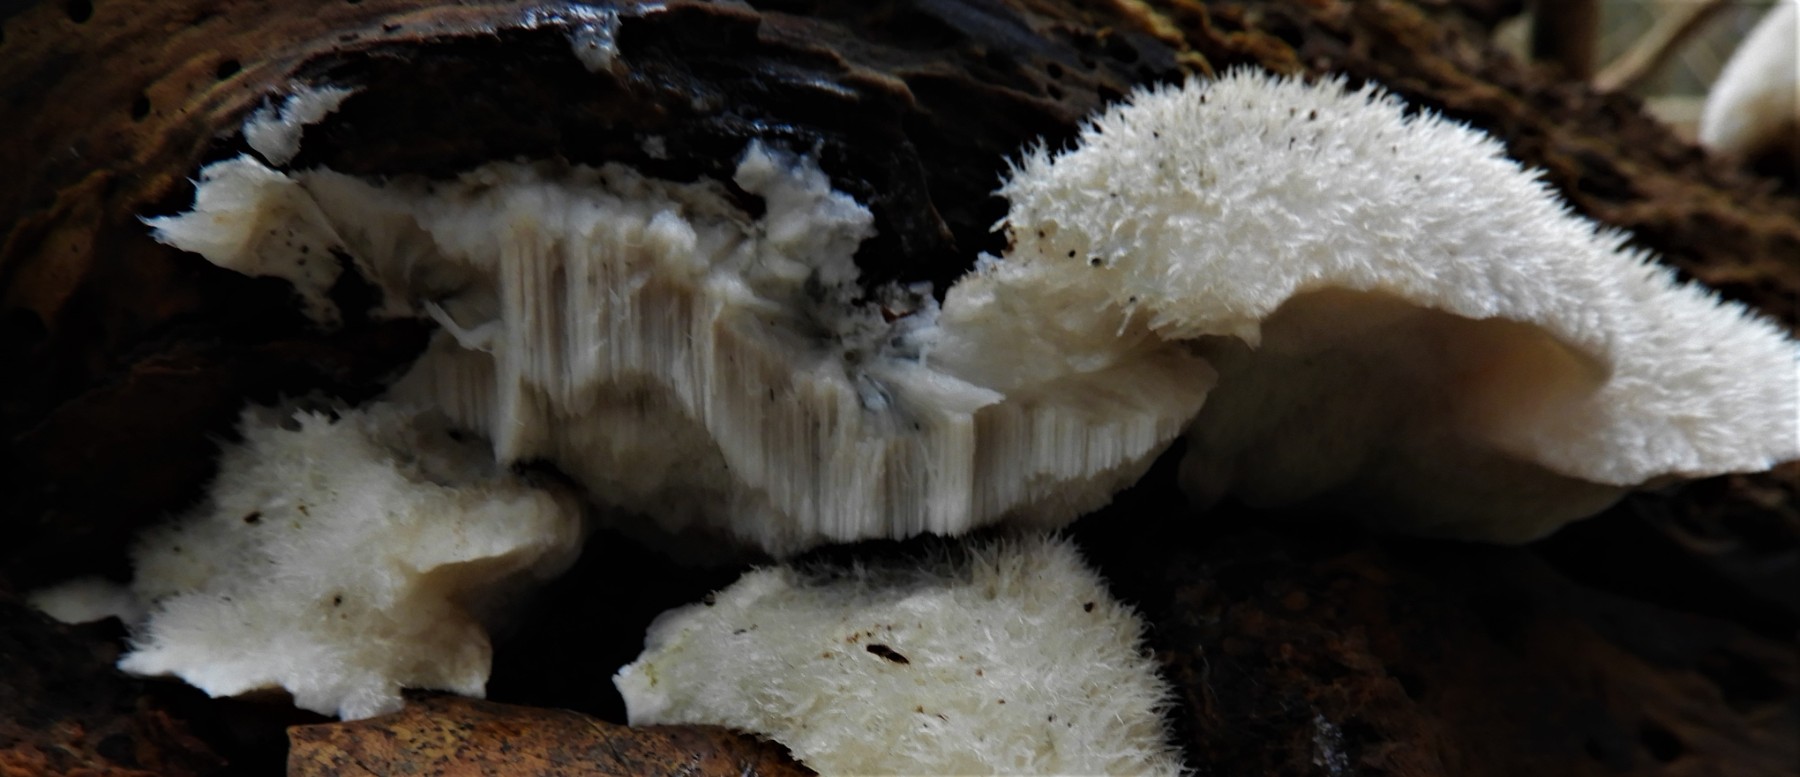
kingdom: Fungi
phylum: Basidiomycota
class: Agaricomycetes
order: Polyporales
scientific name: Polyporales
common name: poresvampordenen
